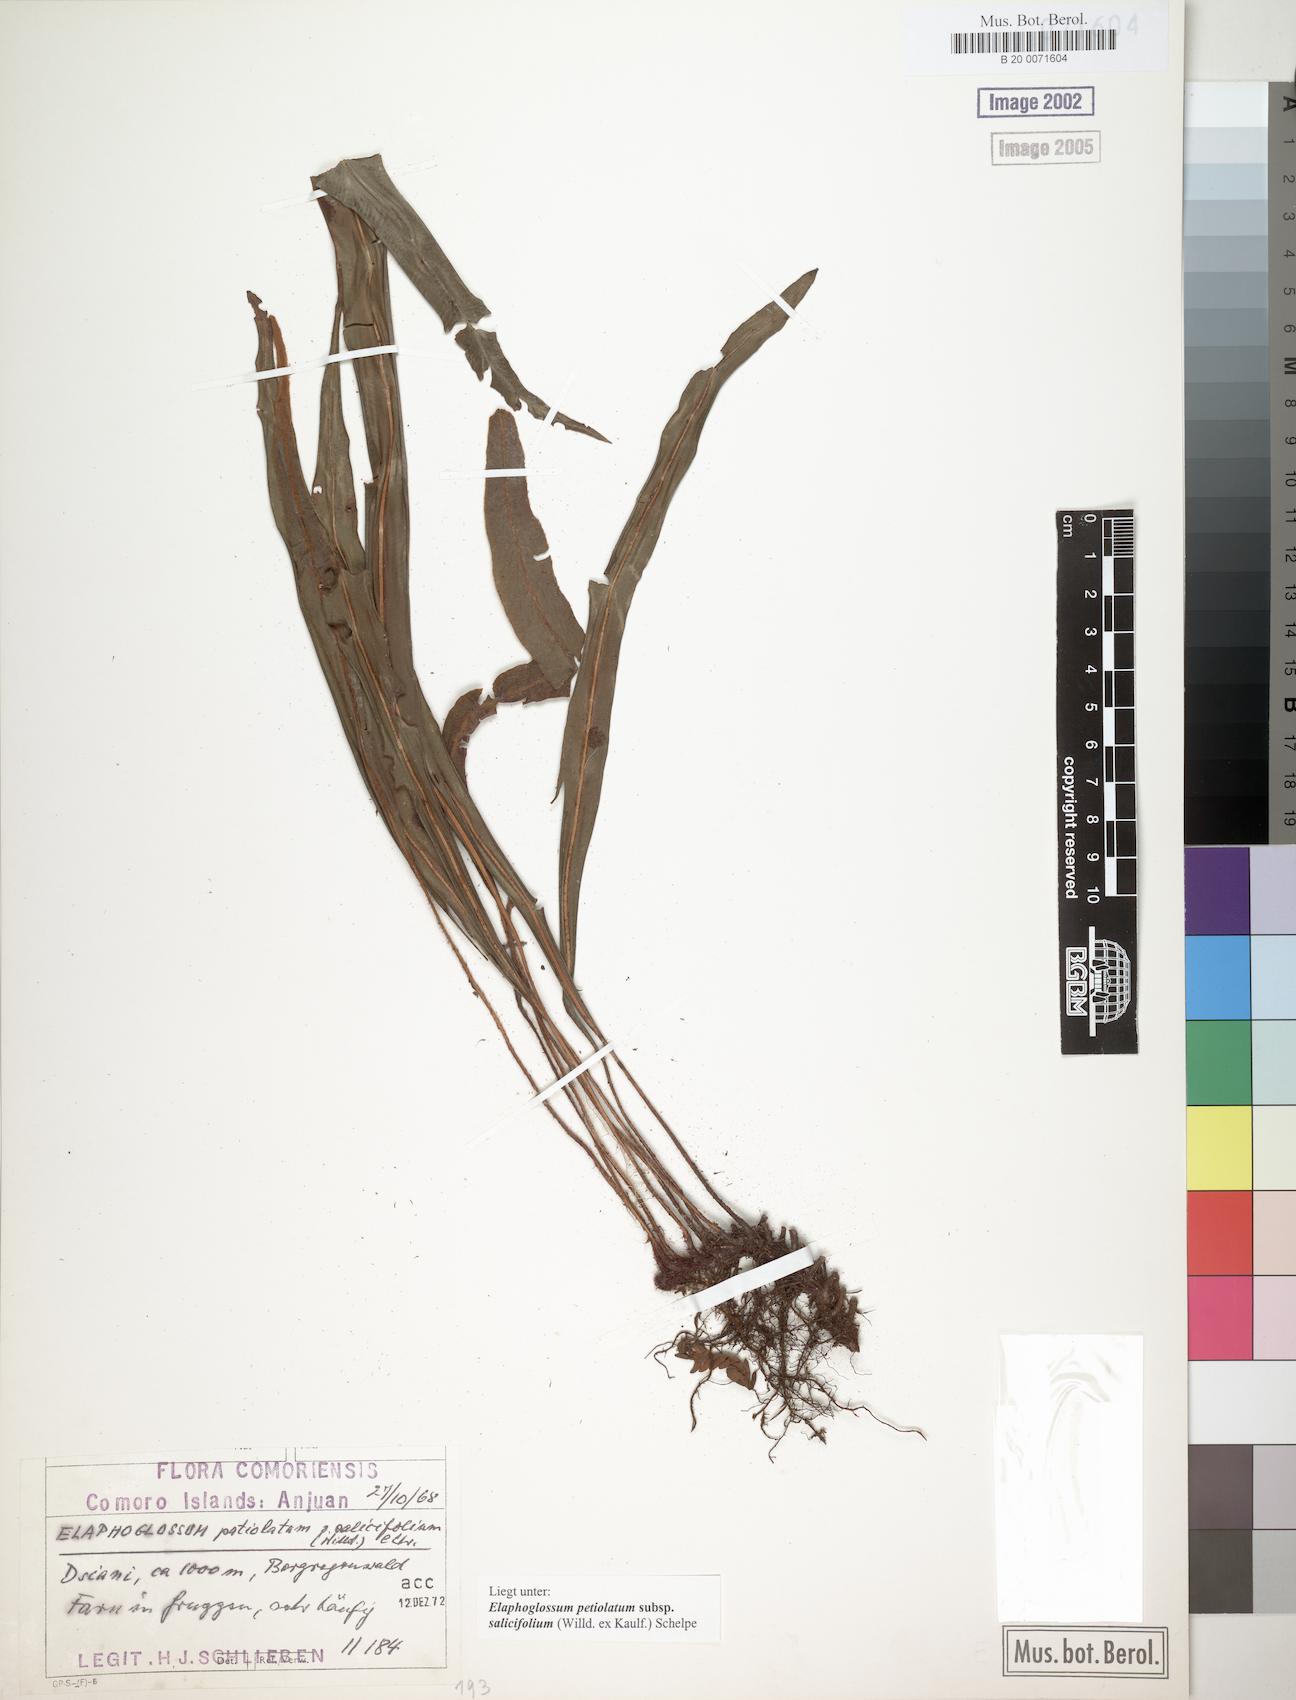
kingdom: Plantae
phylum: Tracheophyta
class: Polypodiopsida
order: Polypodiales
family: Dryopteridaceae
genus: Elaphoglossum
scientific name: Elaphoglossum lancifolium
